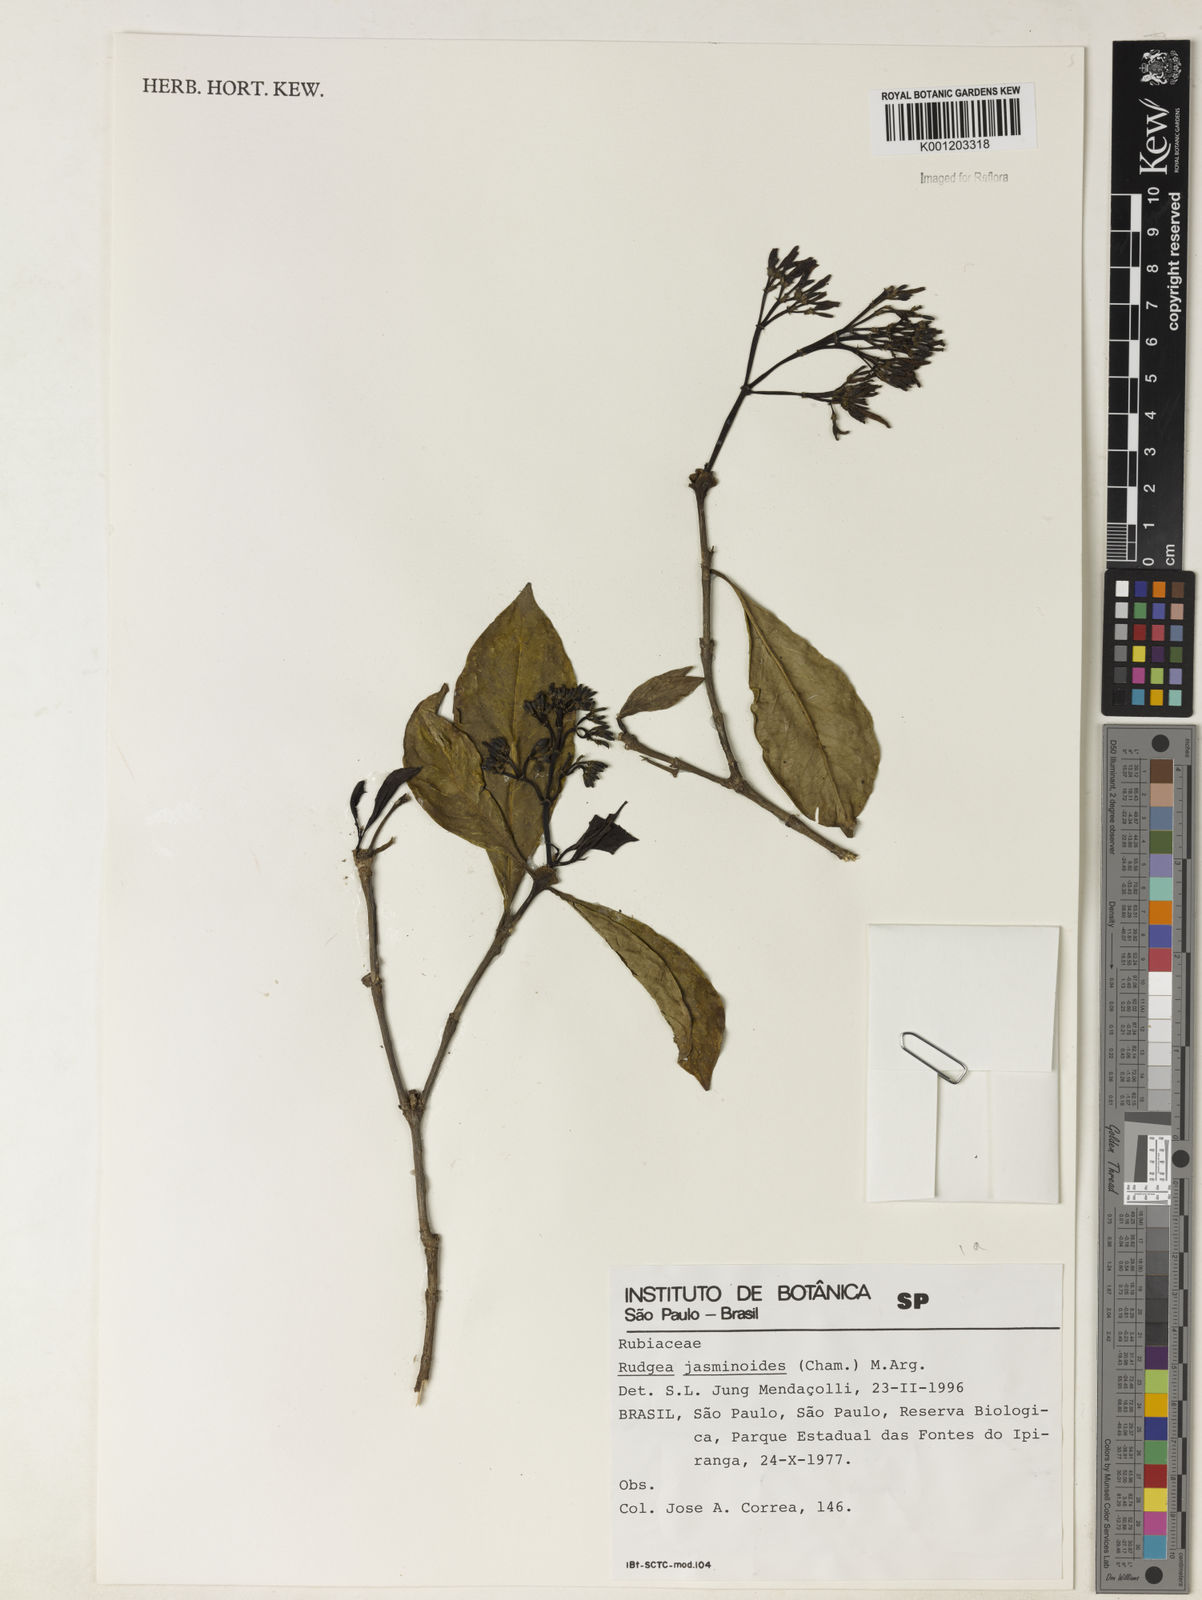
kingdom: Plantae
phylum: Tracheophyta
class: Magnoliopsida
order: Gentianales
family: Rubiaceae
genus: Rudgea
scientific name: Rudgea
